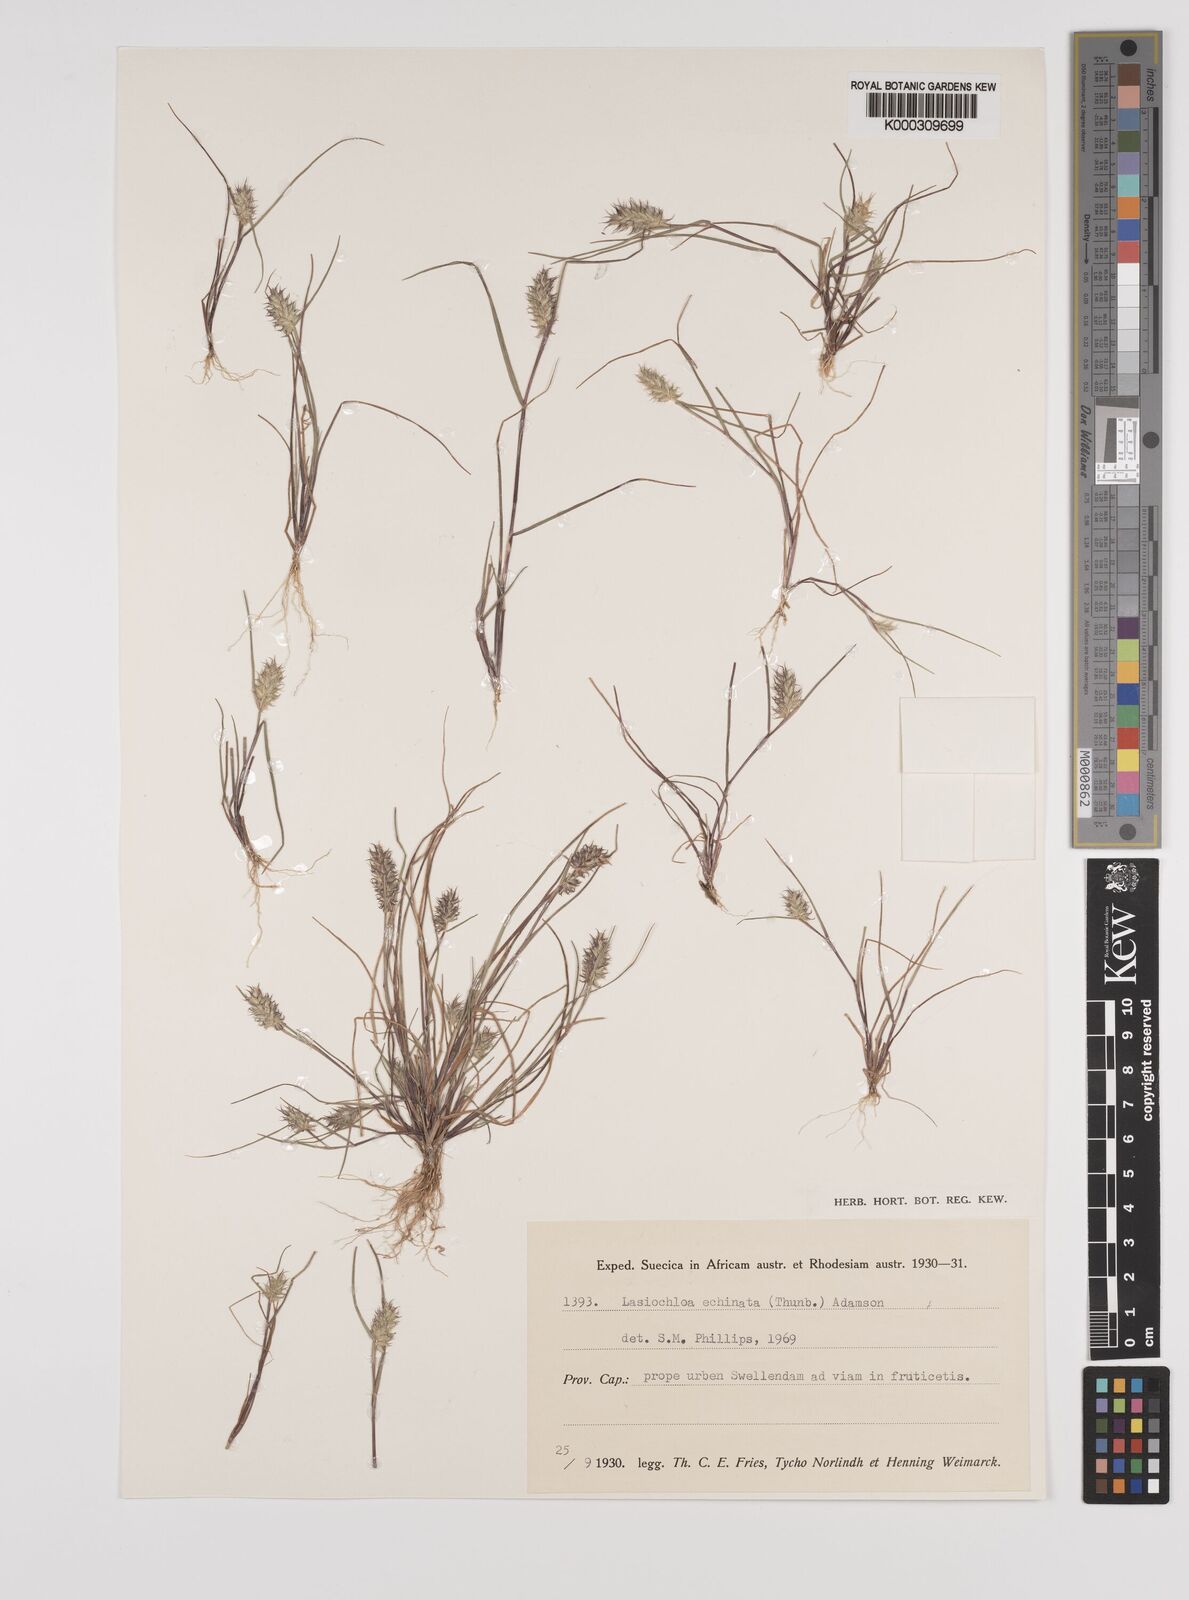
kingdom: Plantae
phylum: Tracheophyta
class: Liliopsida
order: Poales
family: Poaceae
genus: Tribolium
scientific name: Tribolium echinatum
